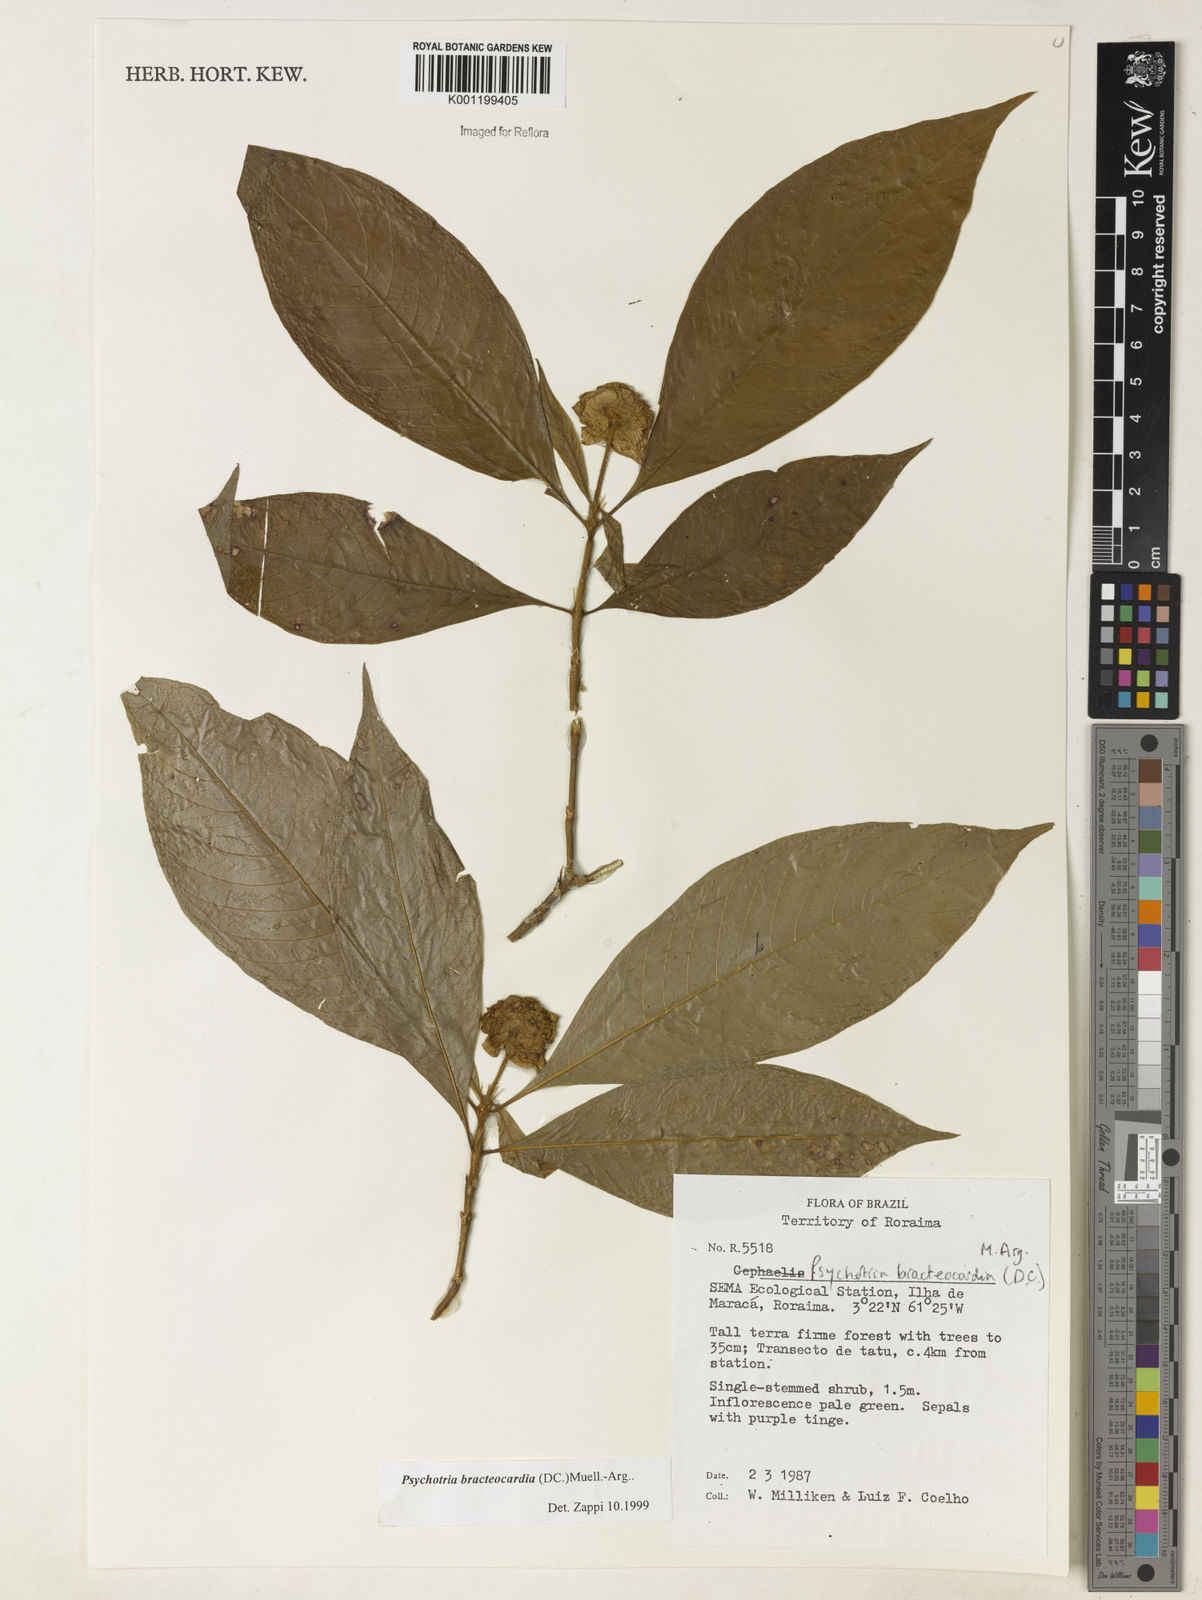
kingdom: Plantae
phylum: Tracheophyta
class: Magnoliopsida
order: Gentianales
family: Rubiaceae
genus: Psychotria
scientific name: Psychotria
